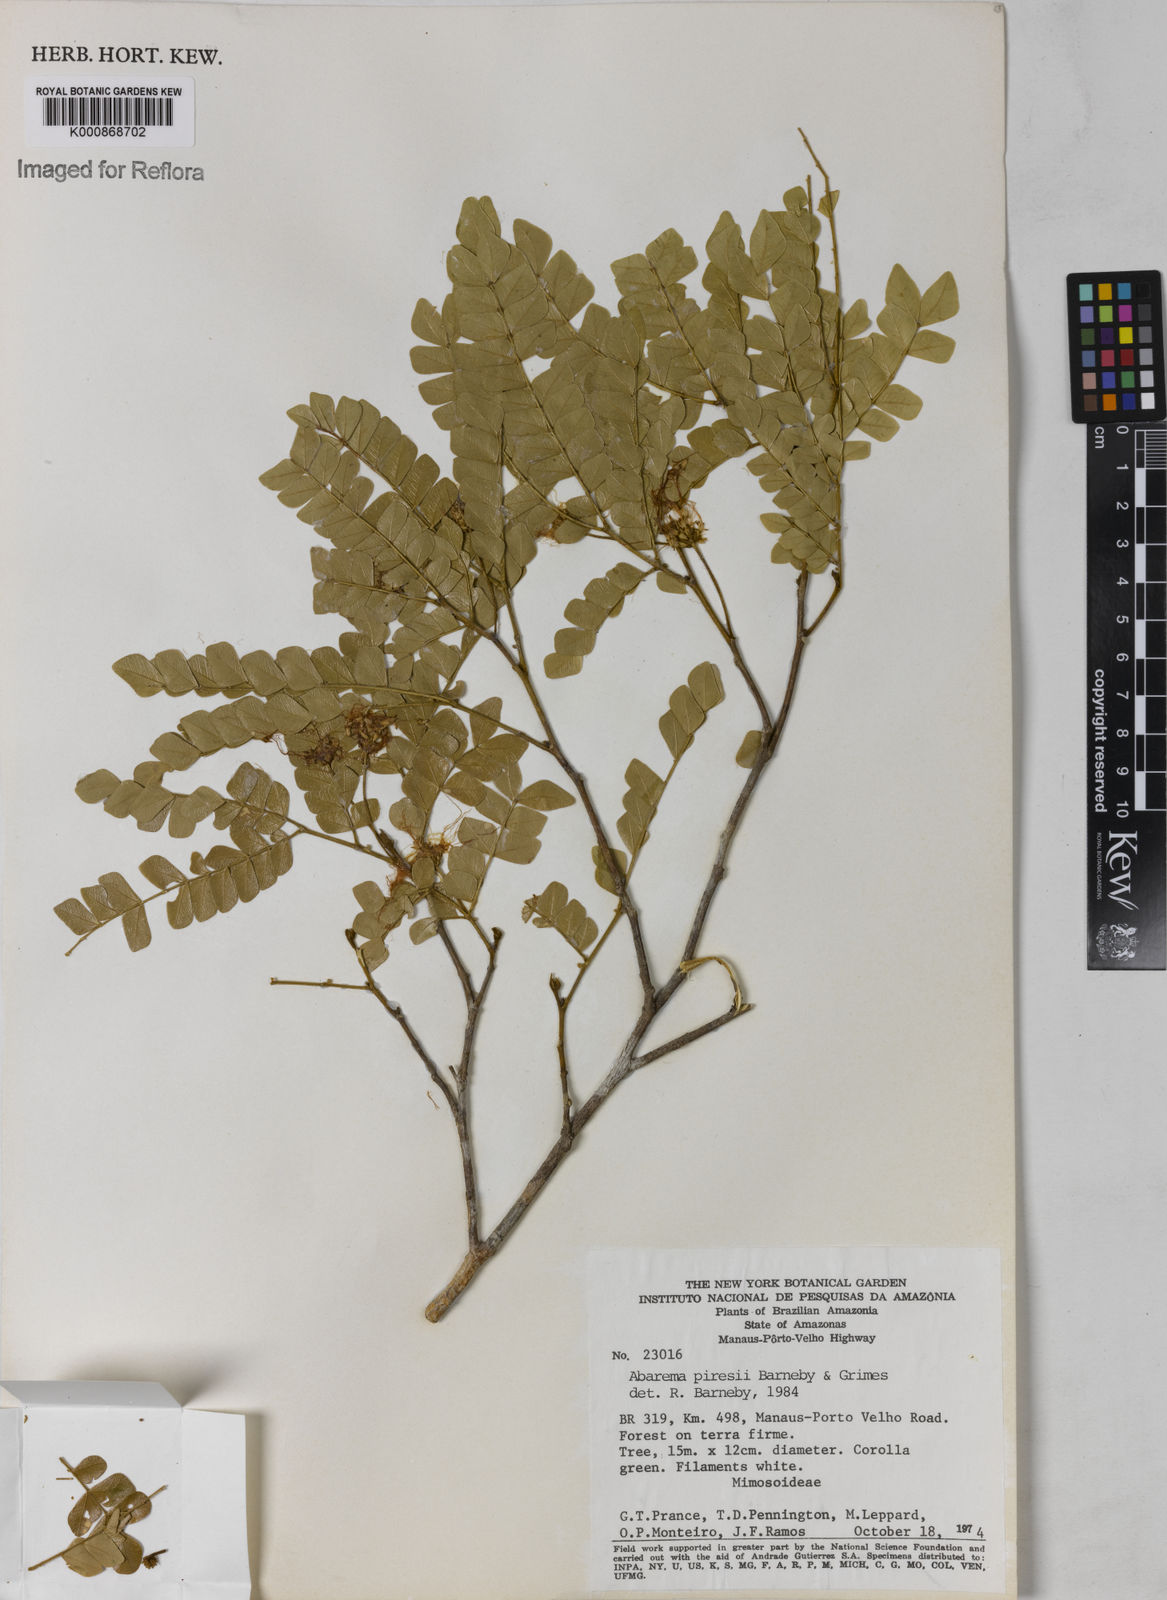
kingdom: Plantae
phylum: Tracheophyta
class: Magnoliopsida
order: Fabales
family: Fabaceae
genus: Jupunba
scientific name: Jupunba piresii
